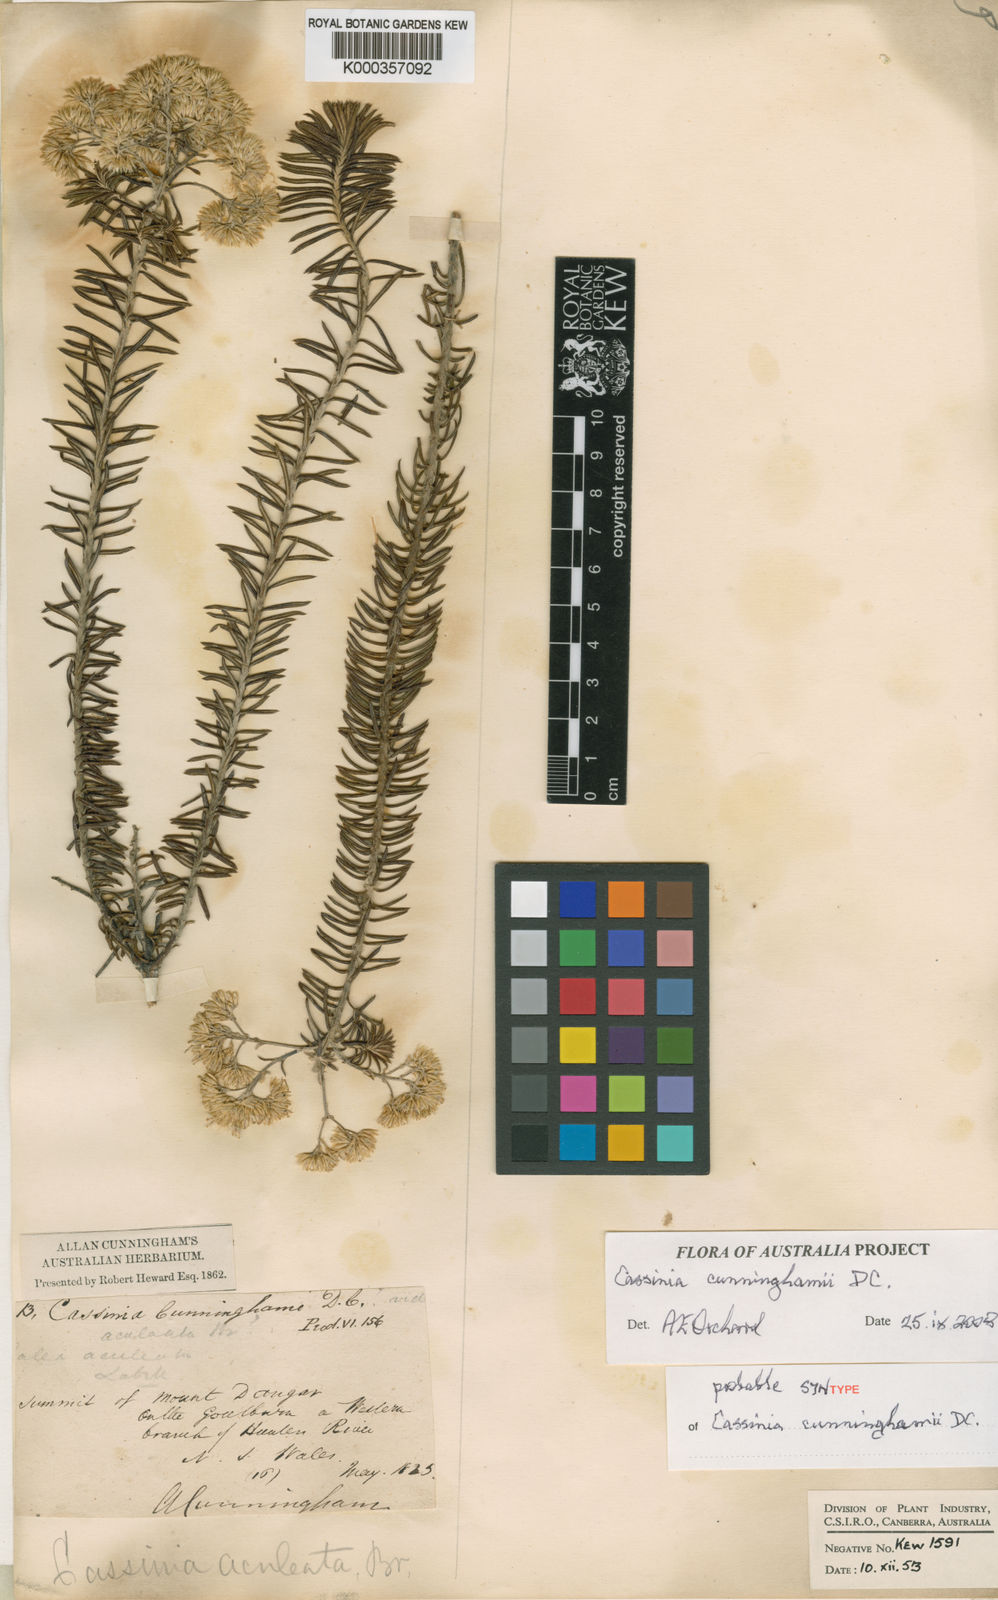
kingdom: Plantae
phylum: Tracheophyta
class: Magnoliopsida
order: Asterales
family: Asteraceae
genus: Cassinia
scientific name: Cassinia cunninghamii
